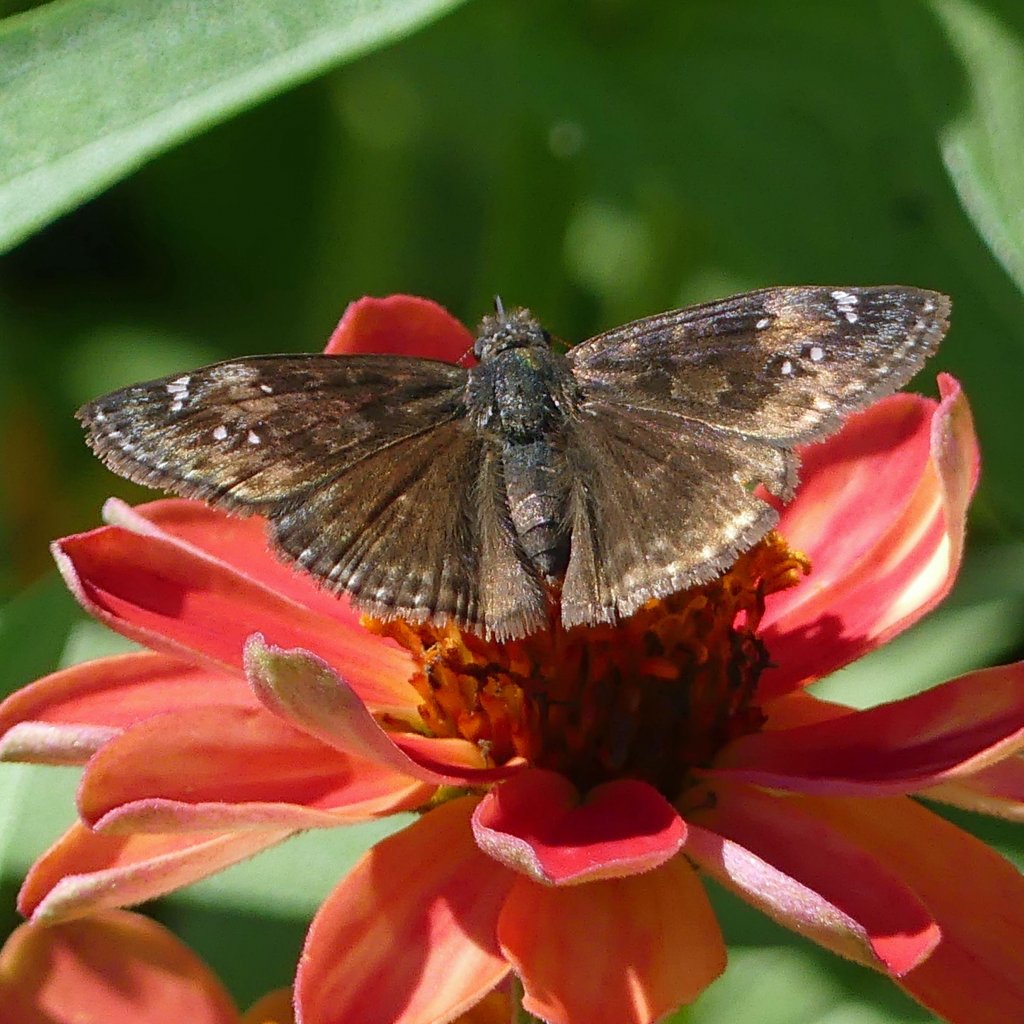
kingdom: Animalia
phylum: Arthropoda
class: Insecta
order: Lepidoptera
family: Hesperiidae
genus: Gesta
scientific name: Gesta
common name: Wild Indigo Duskywing
